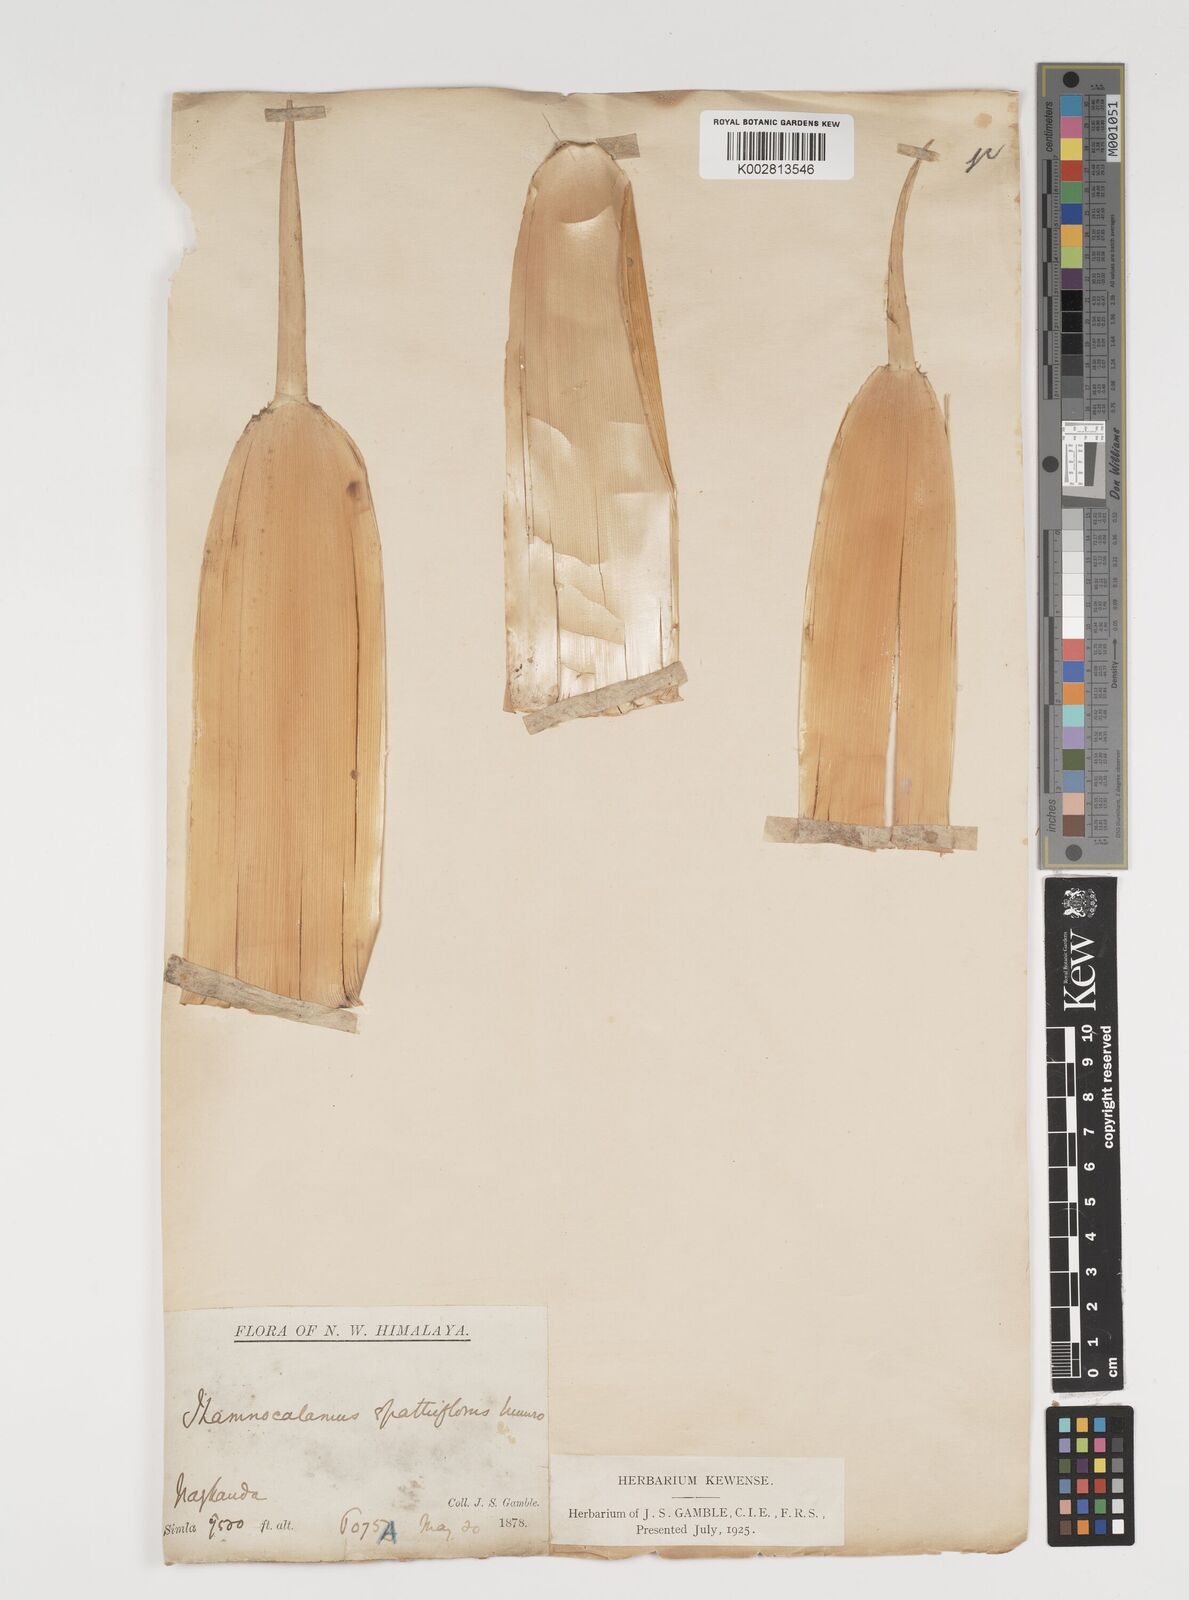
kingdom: Plantae
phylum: Tracheophyta
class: Liliopsida
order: Poales
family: Poaceae
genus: Thamnocalamus
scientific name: Thamnocalamus spathiflorus
